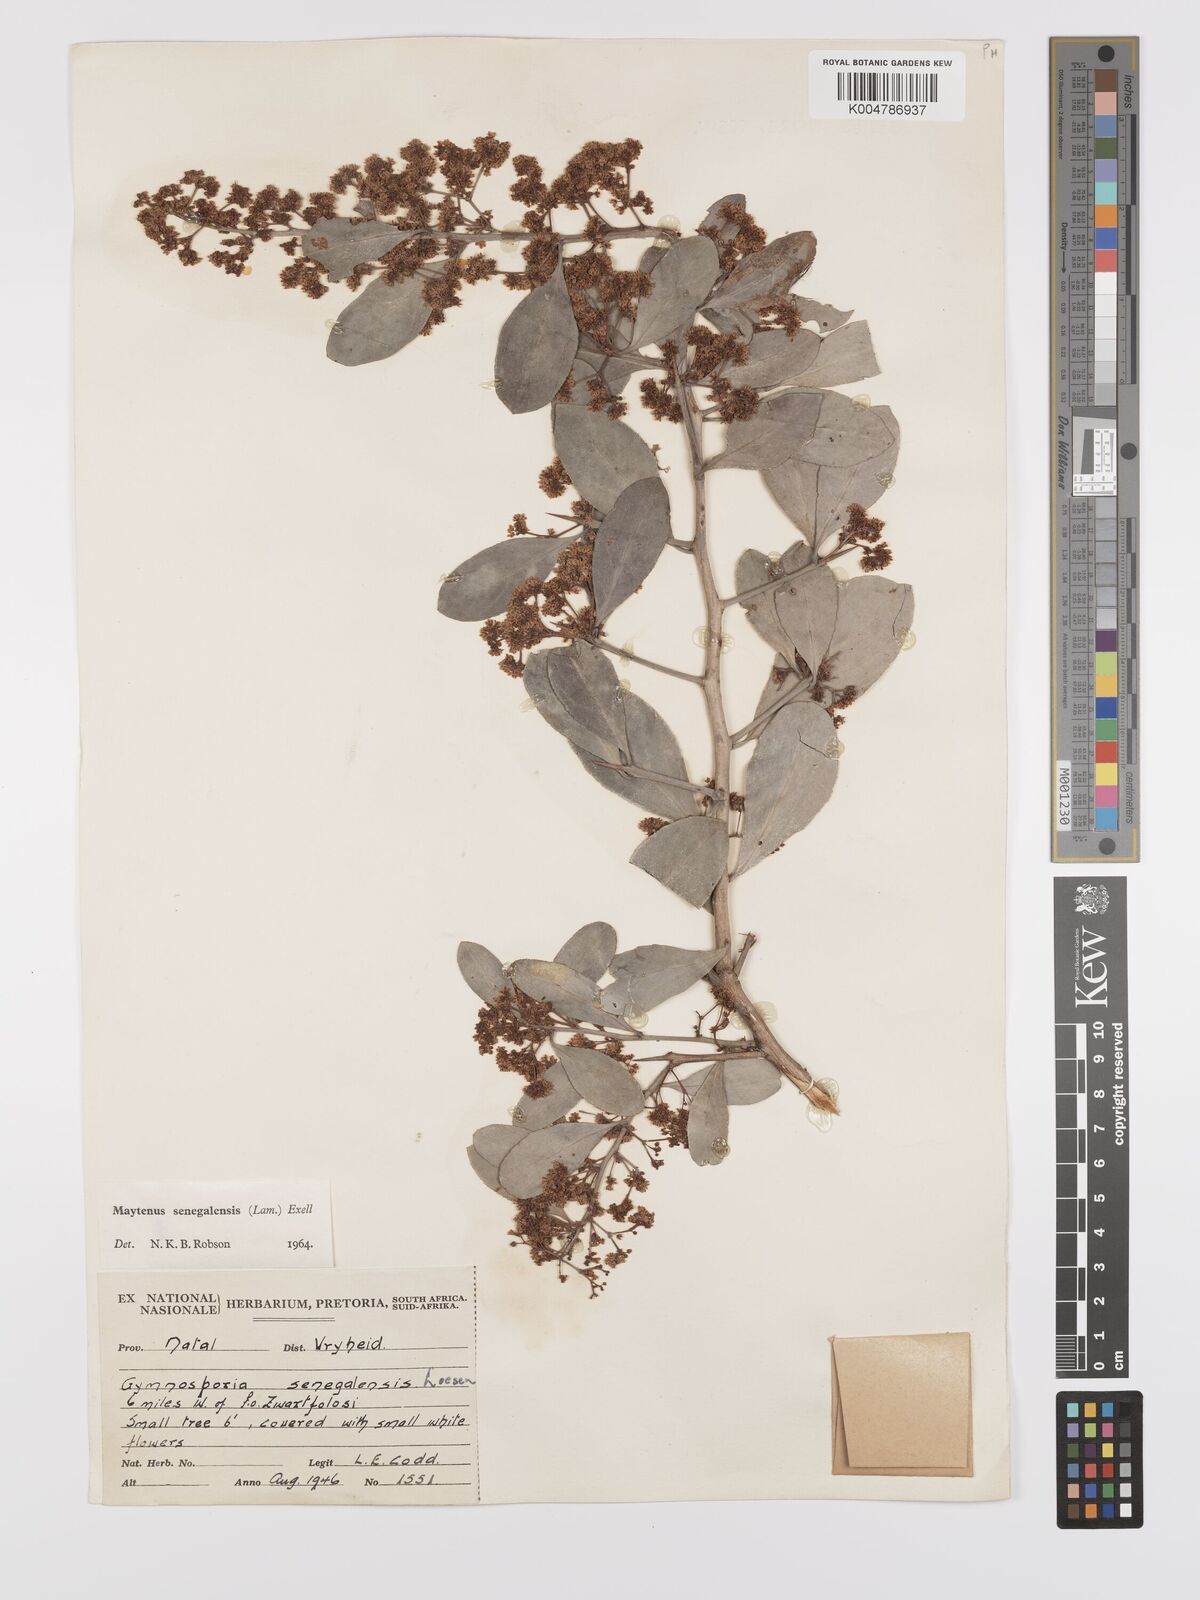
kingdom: Plantae
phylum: Tracheophyta
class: Magnoliopsida
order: Celastrales
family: Celastraceae
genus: Gymnosporia
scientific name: Gymnosporia senegalensis
